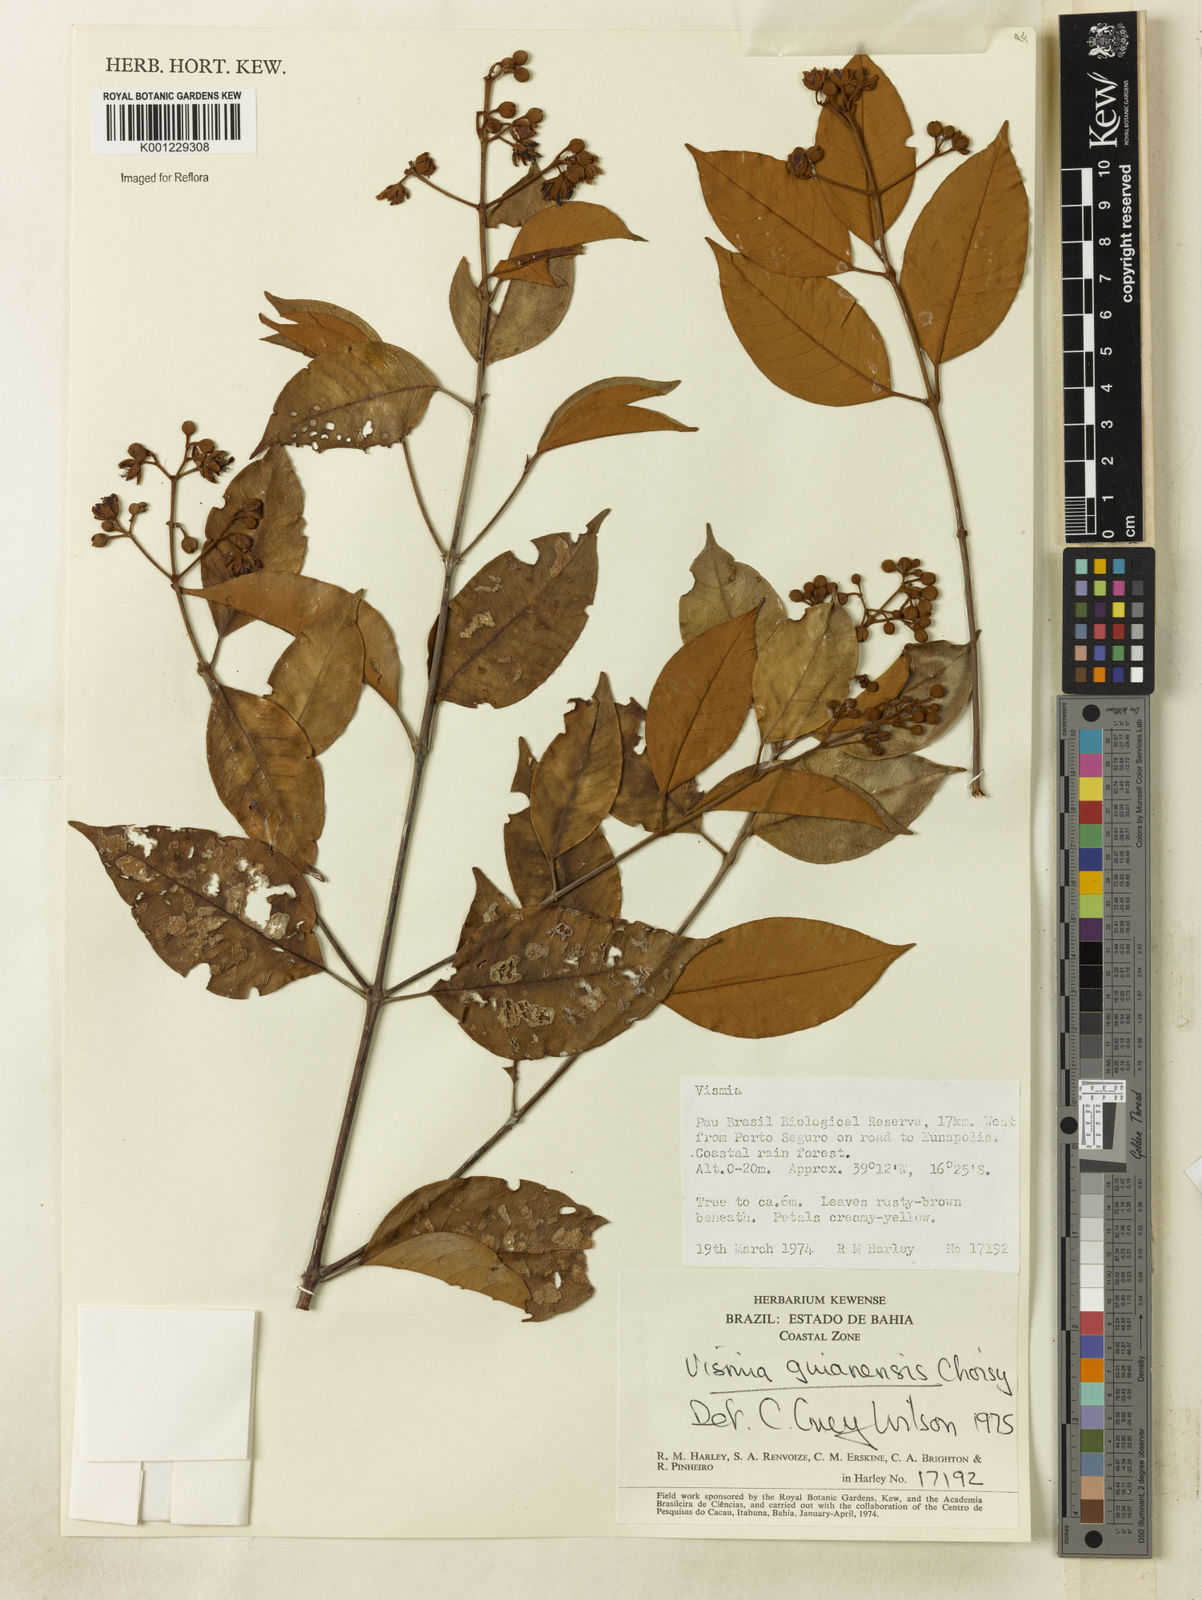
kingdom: Plantae
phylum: Tracheophyta
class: Magnoliopsida
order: Malpighiales
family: Hypericaceae
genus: Vismia
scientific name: Vismia
